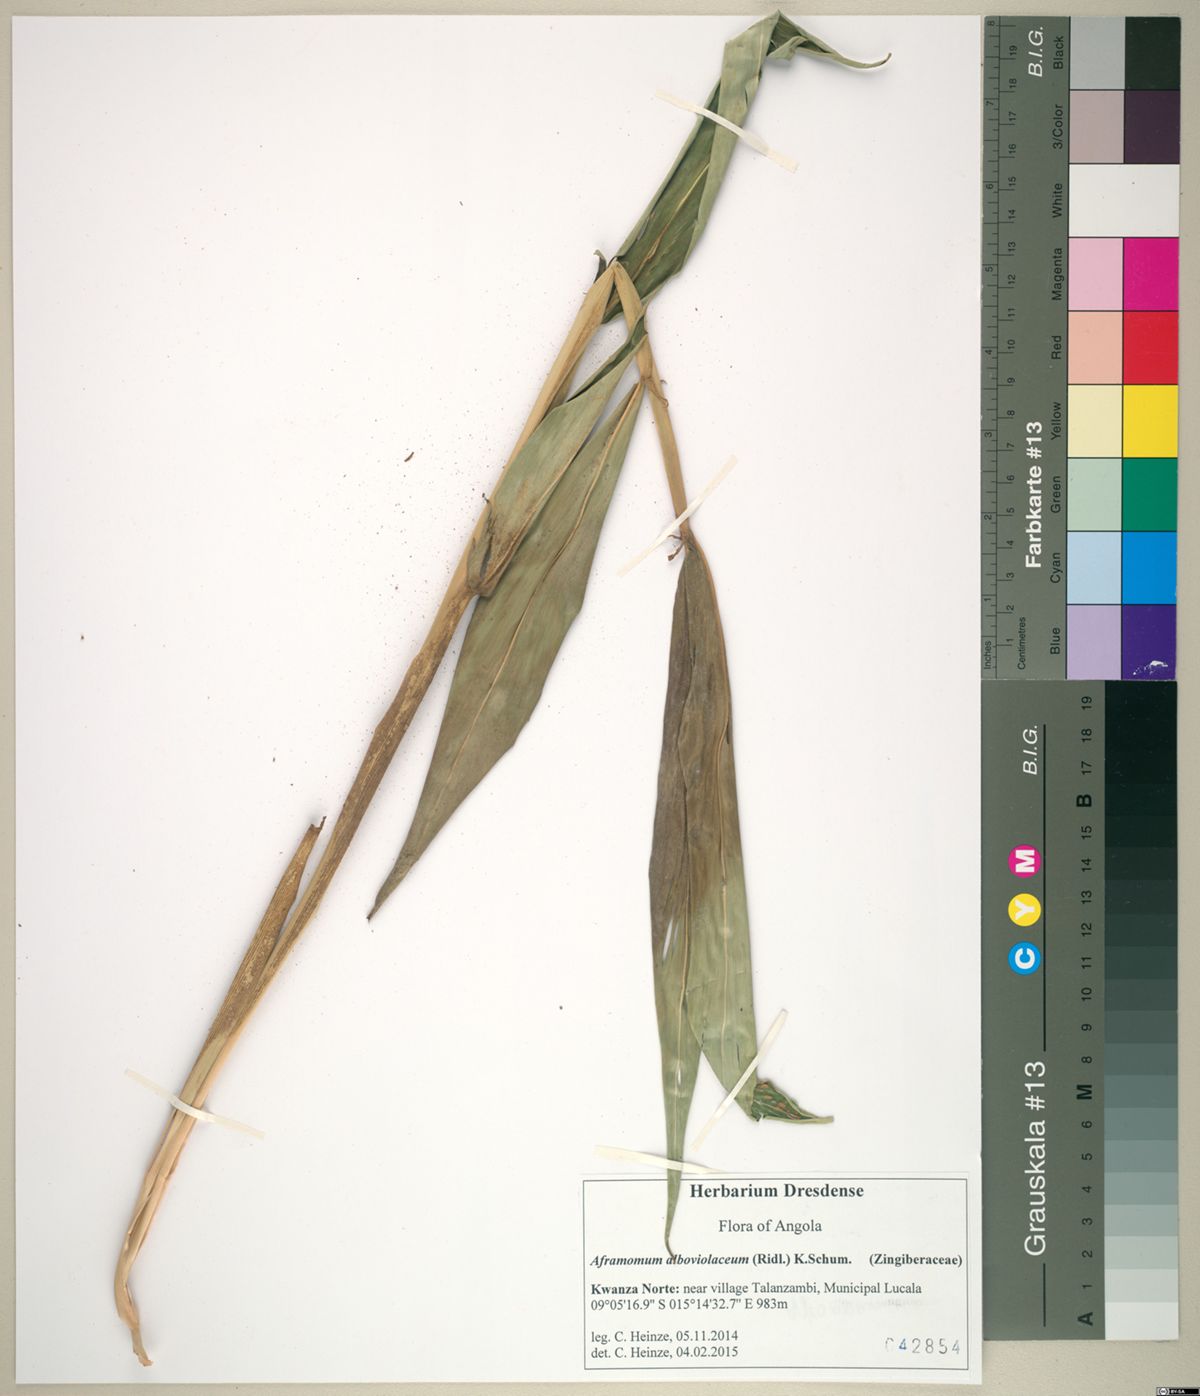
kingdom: Plantae
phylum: Tracheophyta
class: Liliopsida
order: Zingiberales
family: Zingiberaceae
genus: Aframomum
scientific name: Aframomum alboviolaceum
